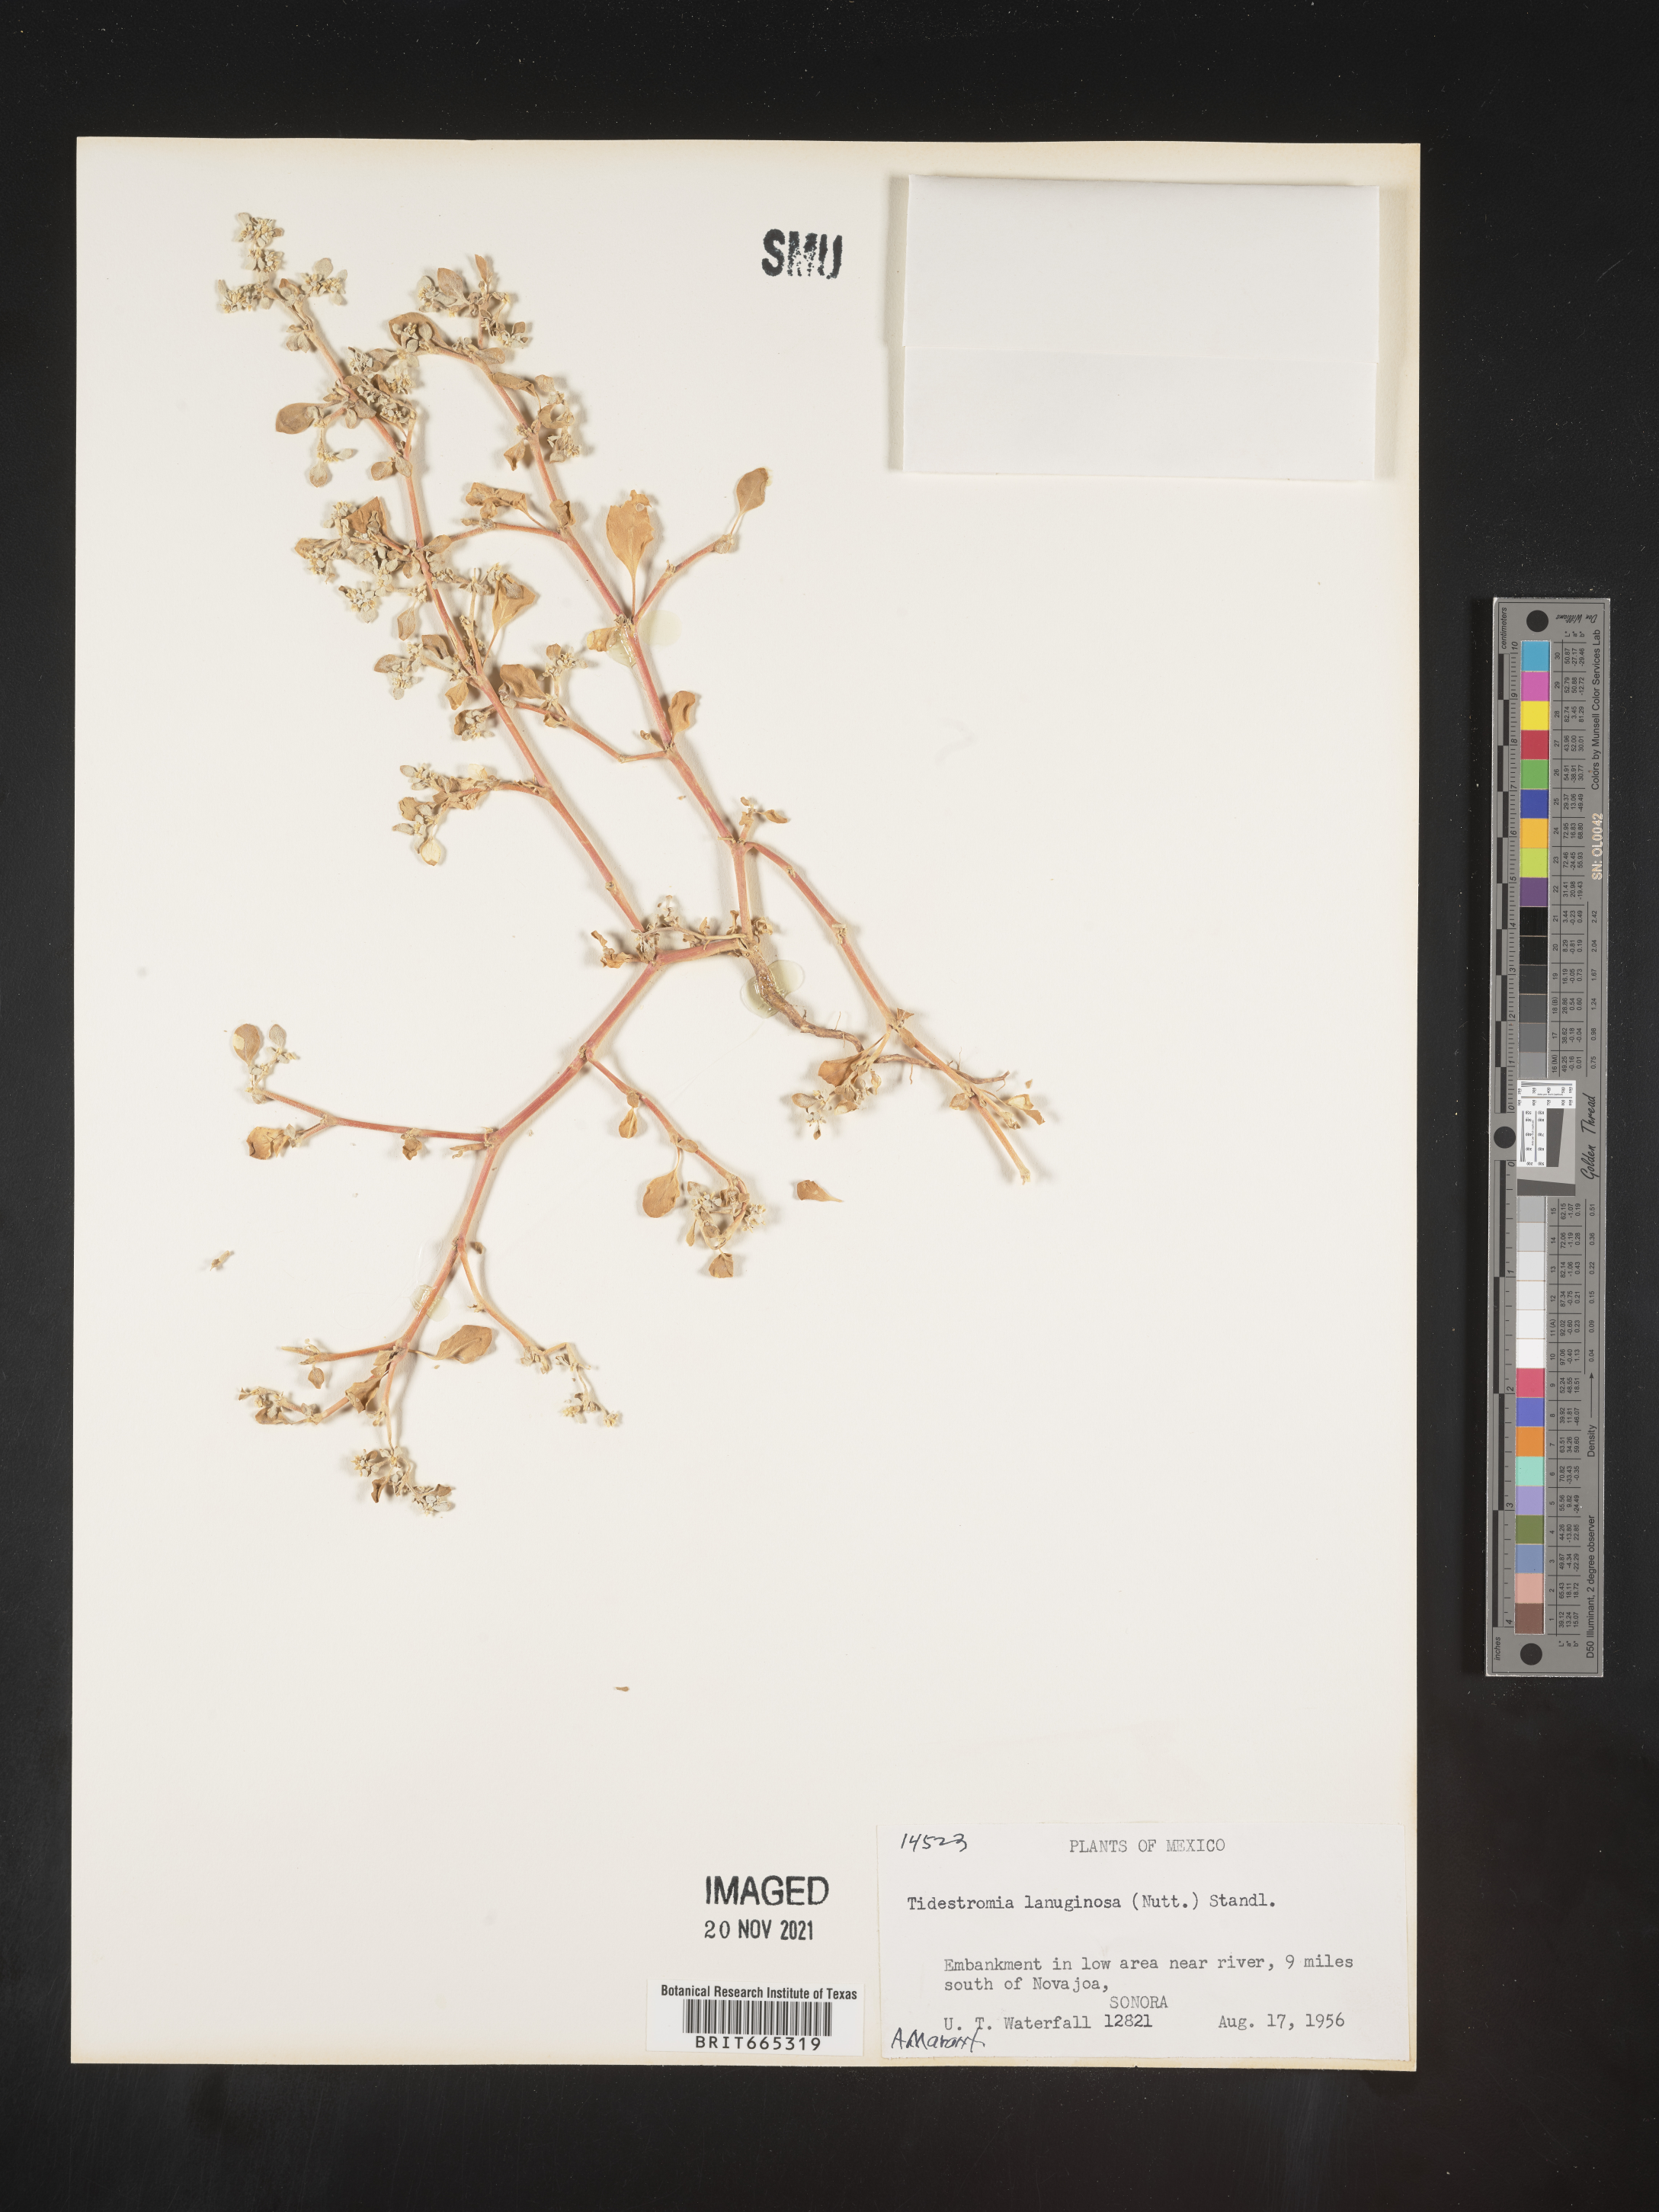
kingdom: Plantae
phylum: Tracheophyta
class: Magnoliopsida
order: Caryophyllales
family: Amaranthaceae
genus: Tidestromia
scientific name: Tidestromia
